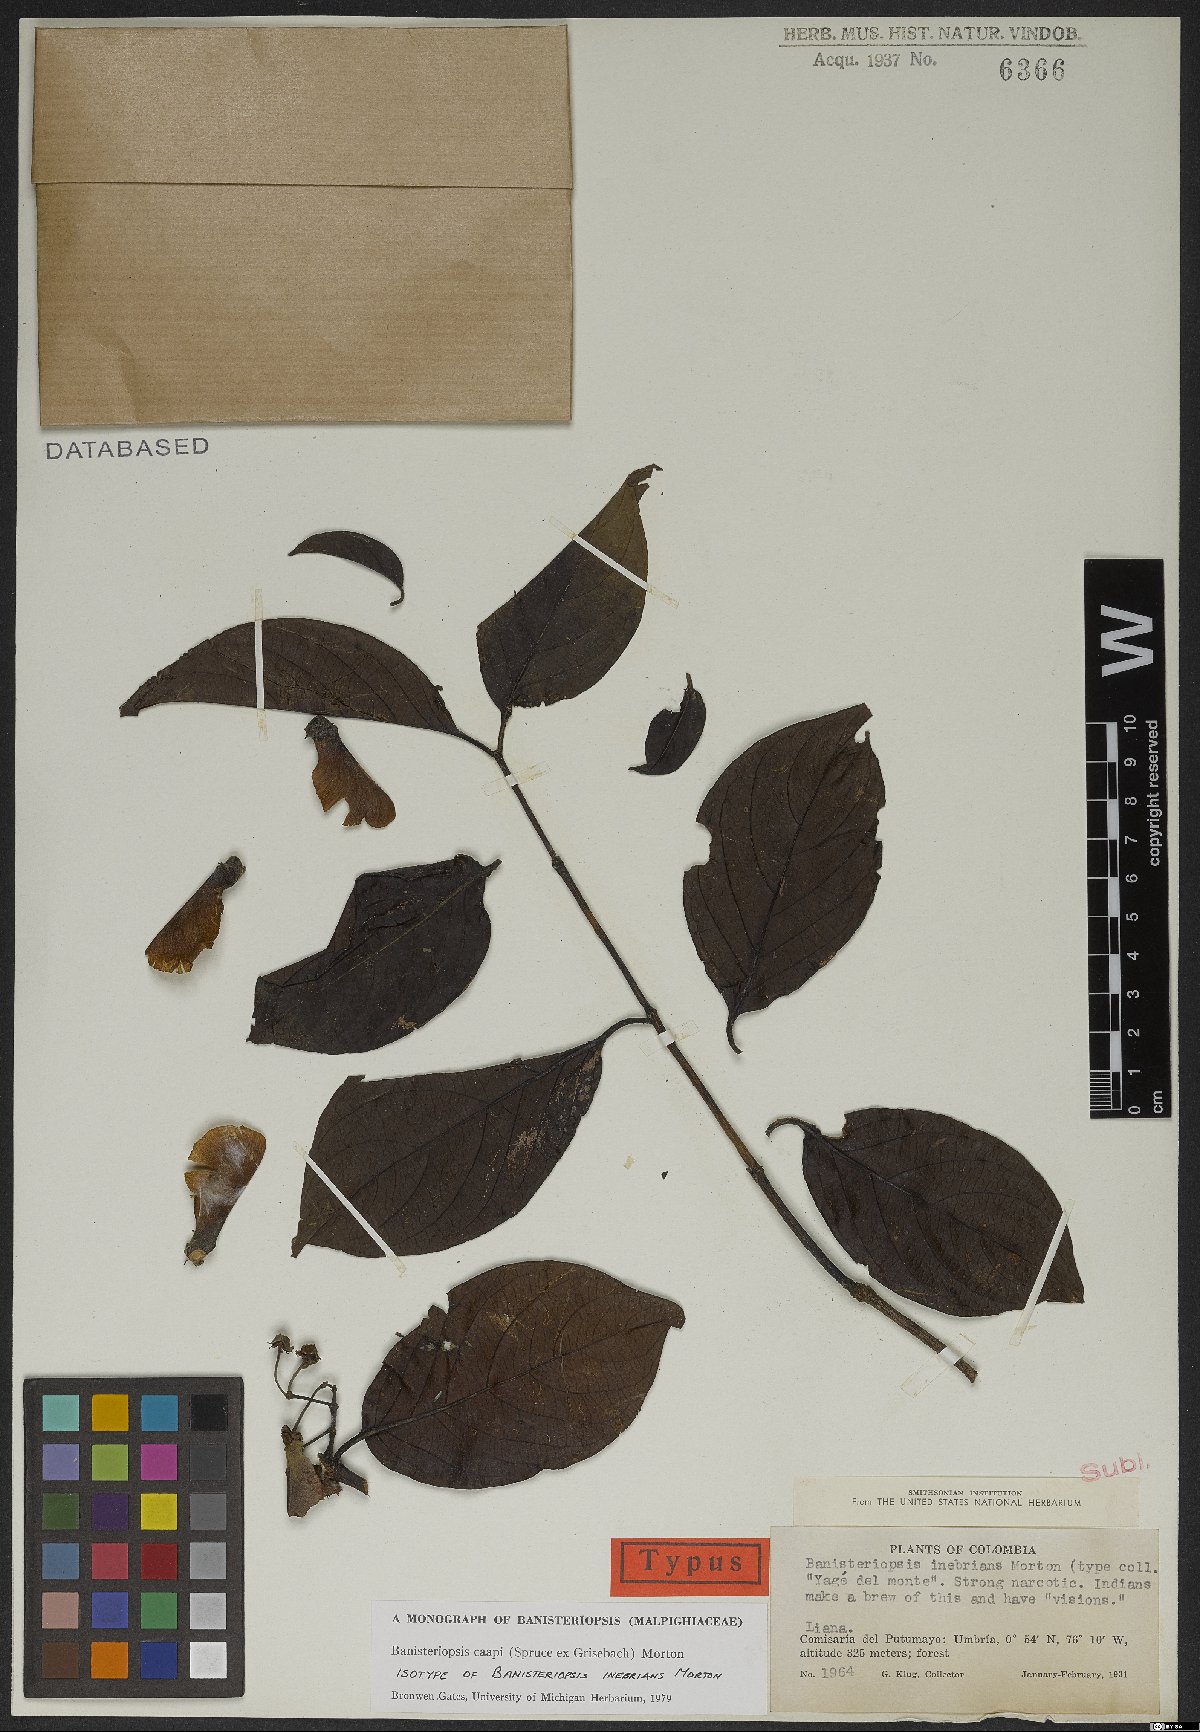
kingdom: Plantae
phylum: Tracheophyta
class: Magnoliopsida
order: Malpighiales
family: Malpighiaceae
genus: Banisteriopsis
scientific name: Banisteriopsis caapi
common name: Soulvine
